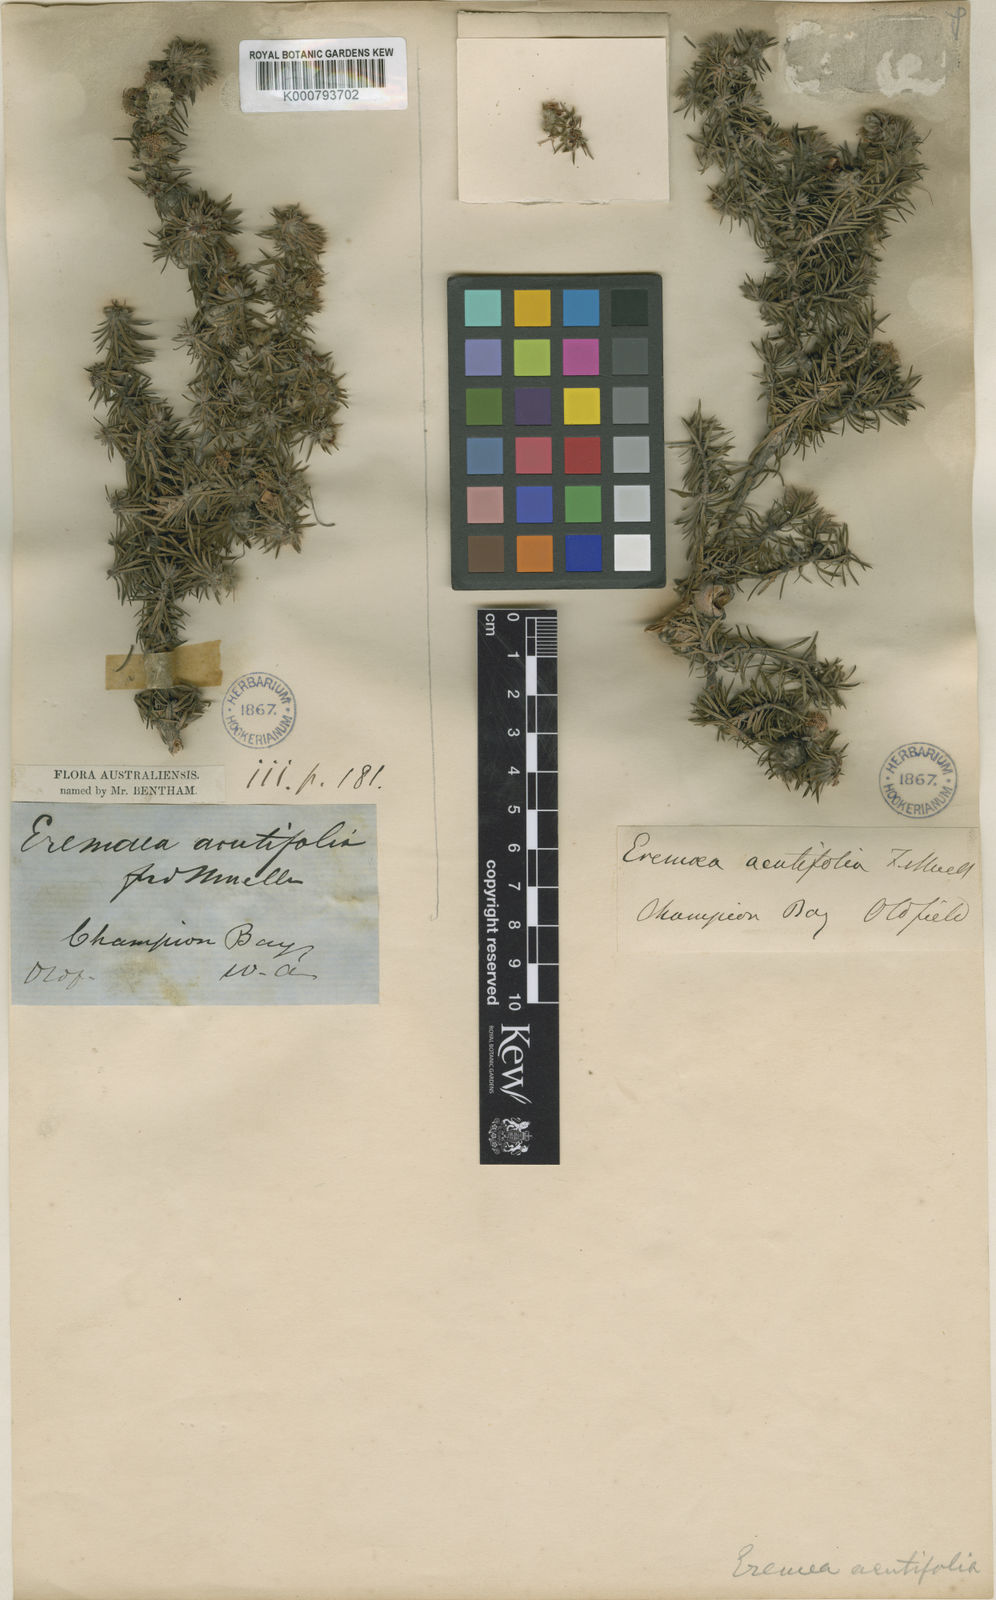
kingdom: Plantae
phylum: Tracheophyta
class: Magnoliopsida
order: Myrtales
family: Myrtaceae
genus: Melaleuca
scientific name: Melaleuca acrifolia
